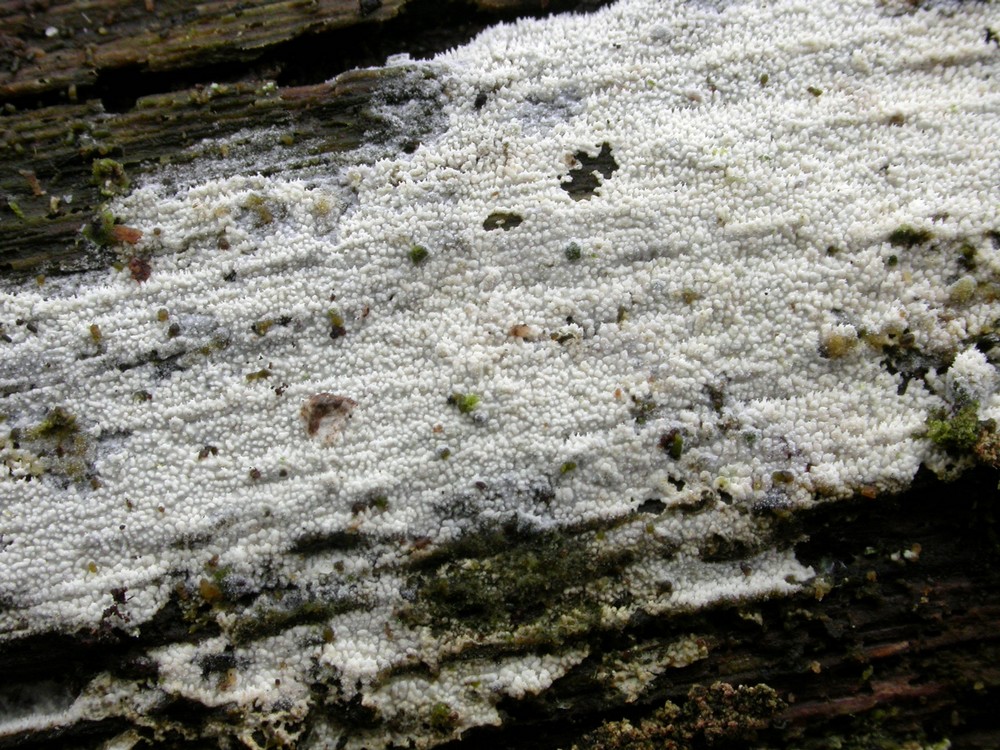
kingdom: Fungi
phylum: Basidiomycota
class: Agaricomycetes
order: Hymenochaetales
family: Schizoporaceae
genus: Xylodon
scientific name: Xylodon nesporii
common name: fintandet tandsvamp
